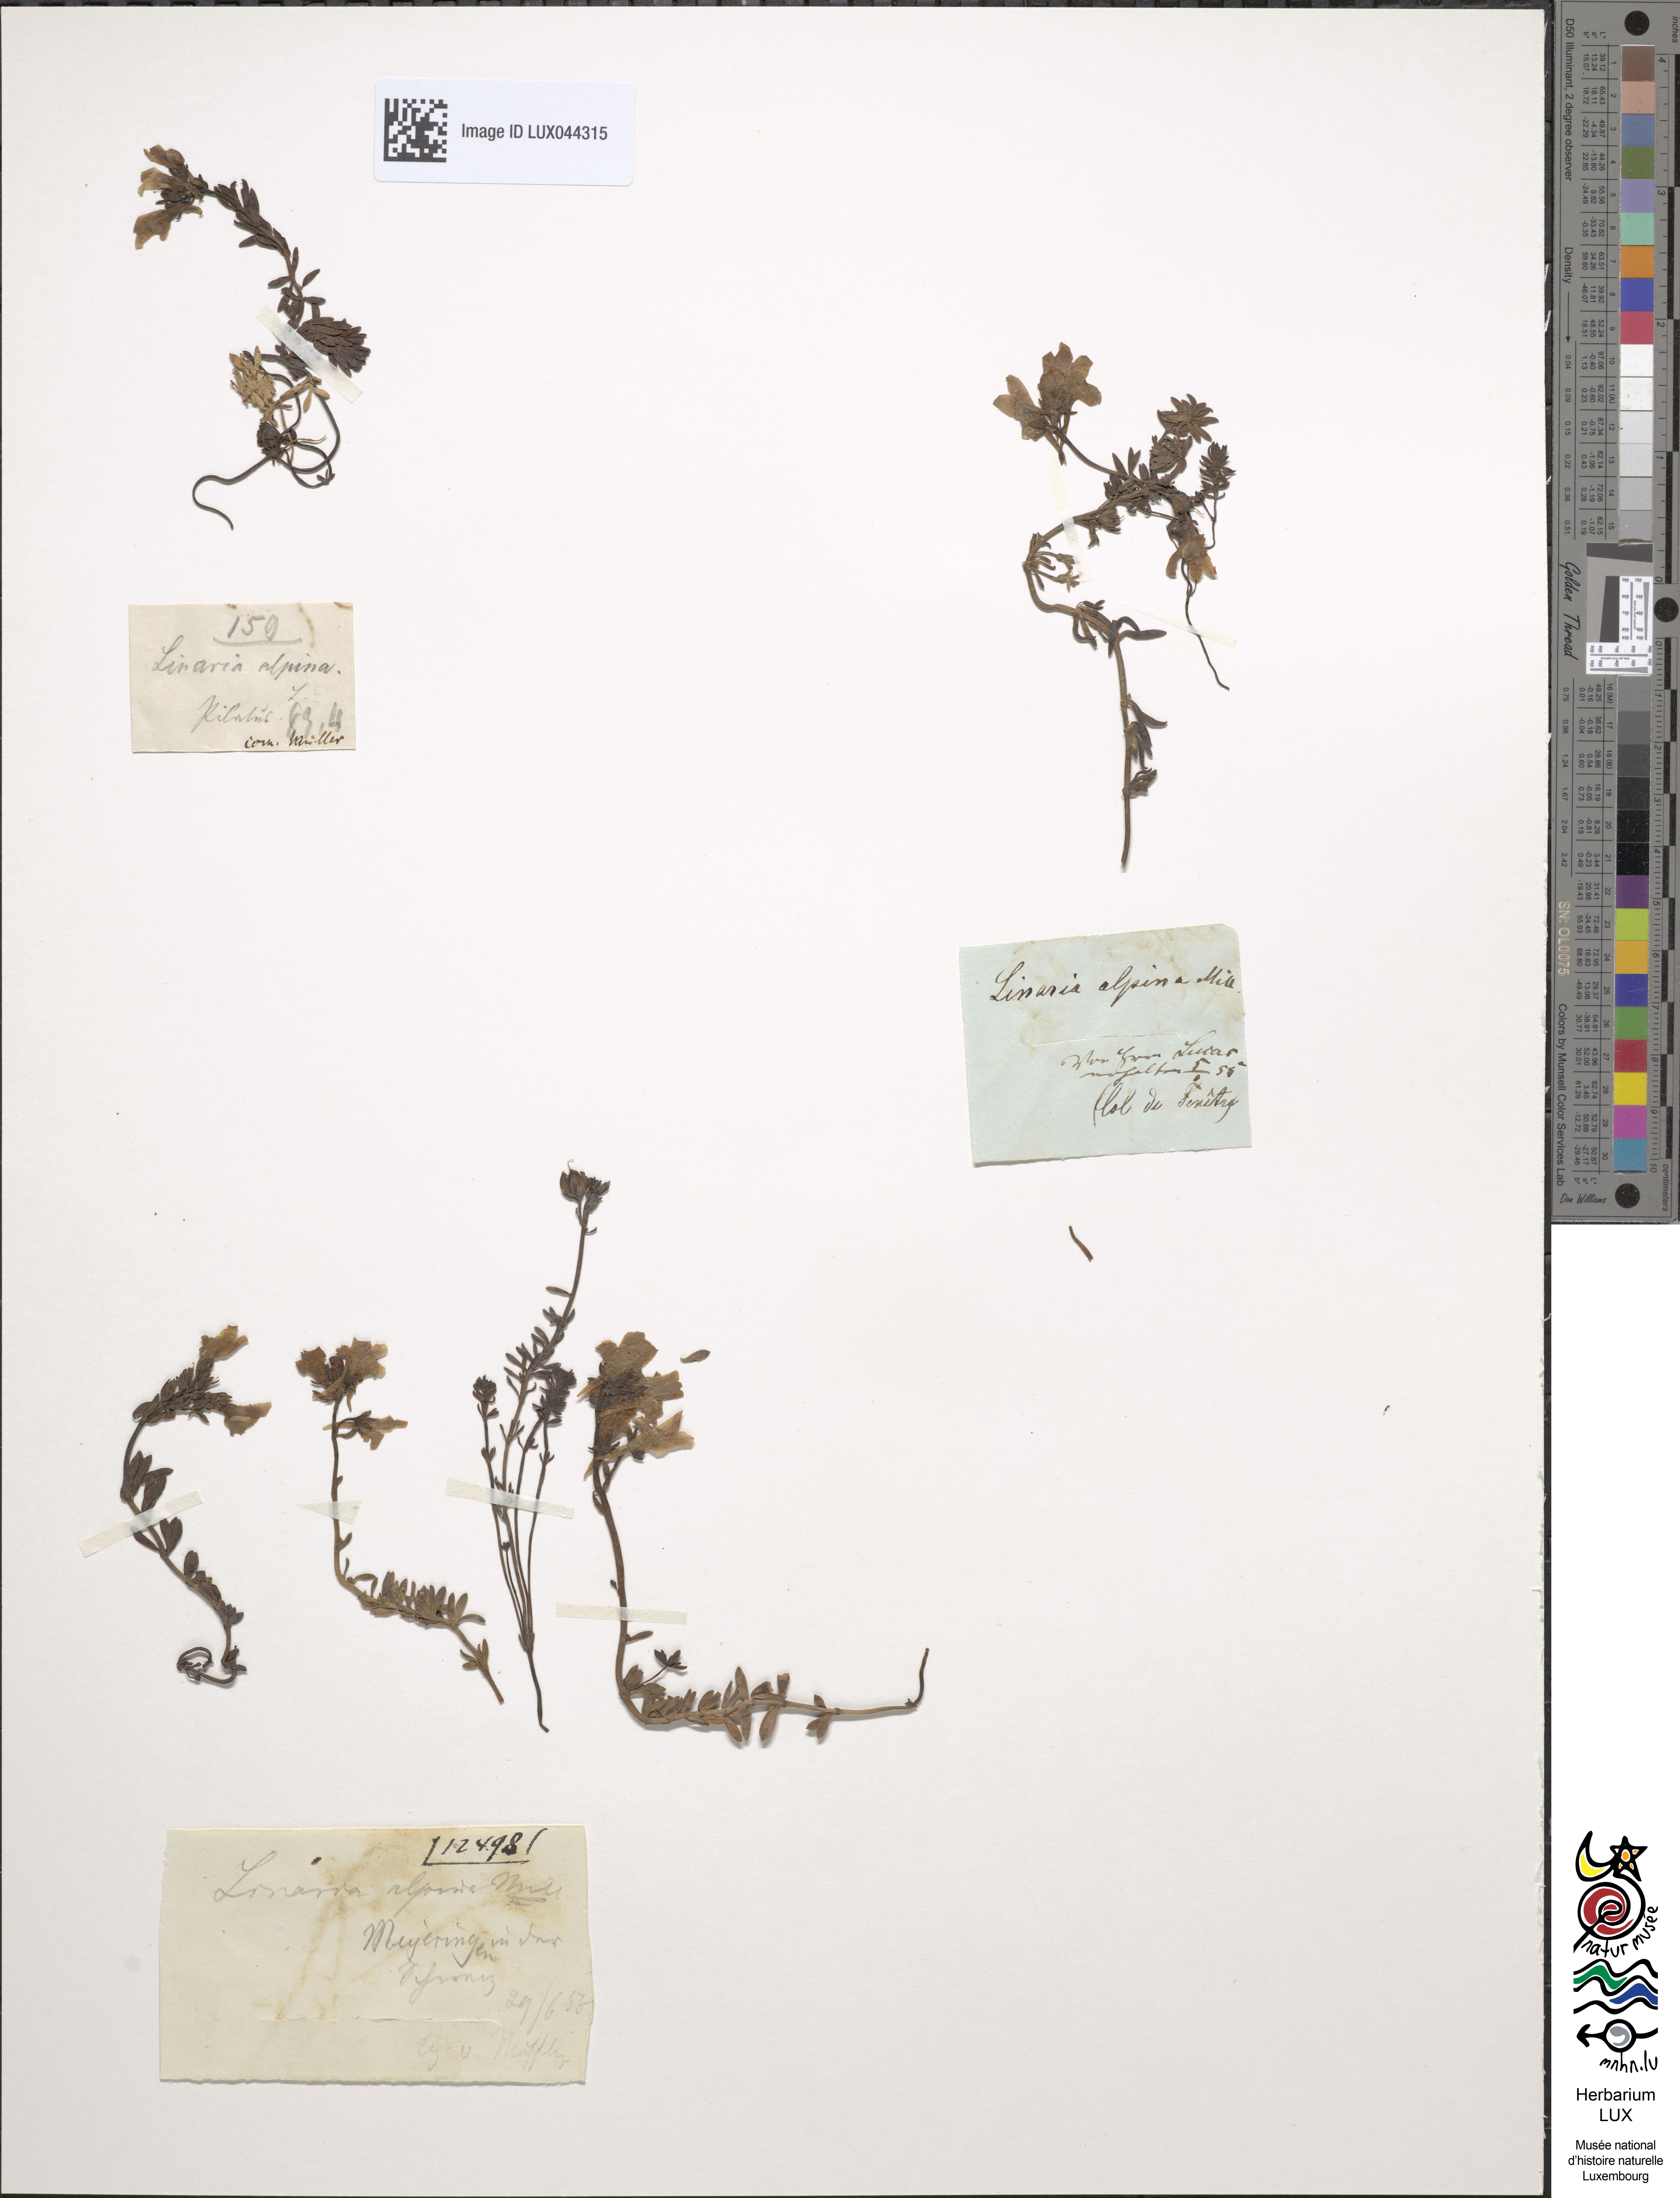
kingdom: Plantae
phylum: Tracheophyta
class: Magnoliopsida
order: Lamiales
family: Plantaginaceae
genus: Linaria
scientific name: Linaria alpina
